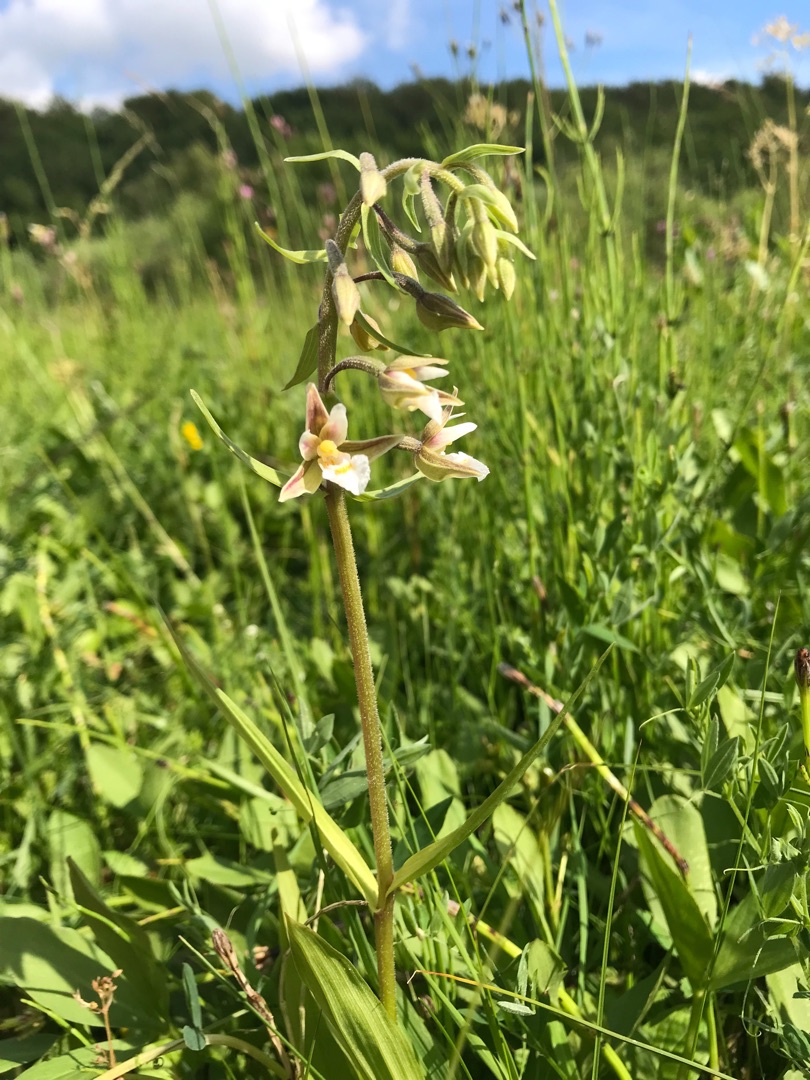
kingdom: Plantae
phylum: Tracheophyta
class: Liliopsida
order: Asparagales
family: Orchidaceae
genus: Epipactis
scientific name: Epipactis palustris
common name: Sump-hullæbe
